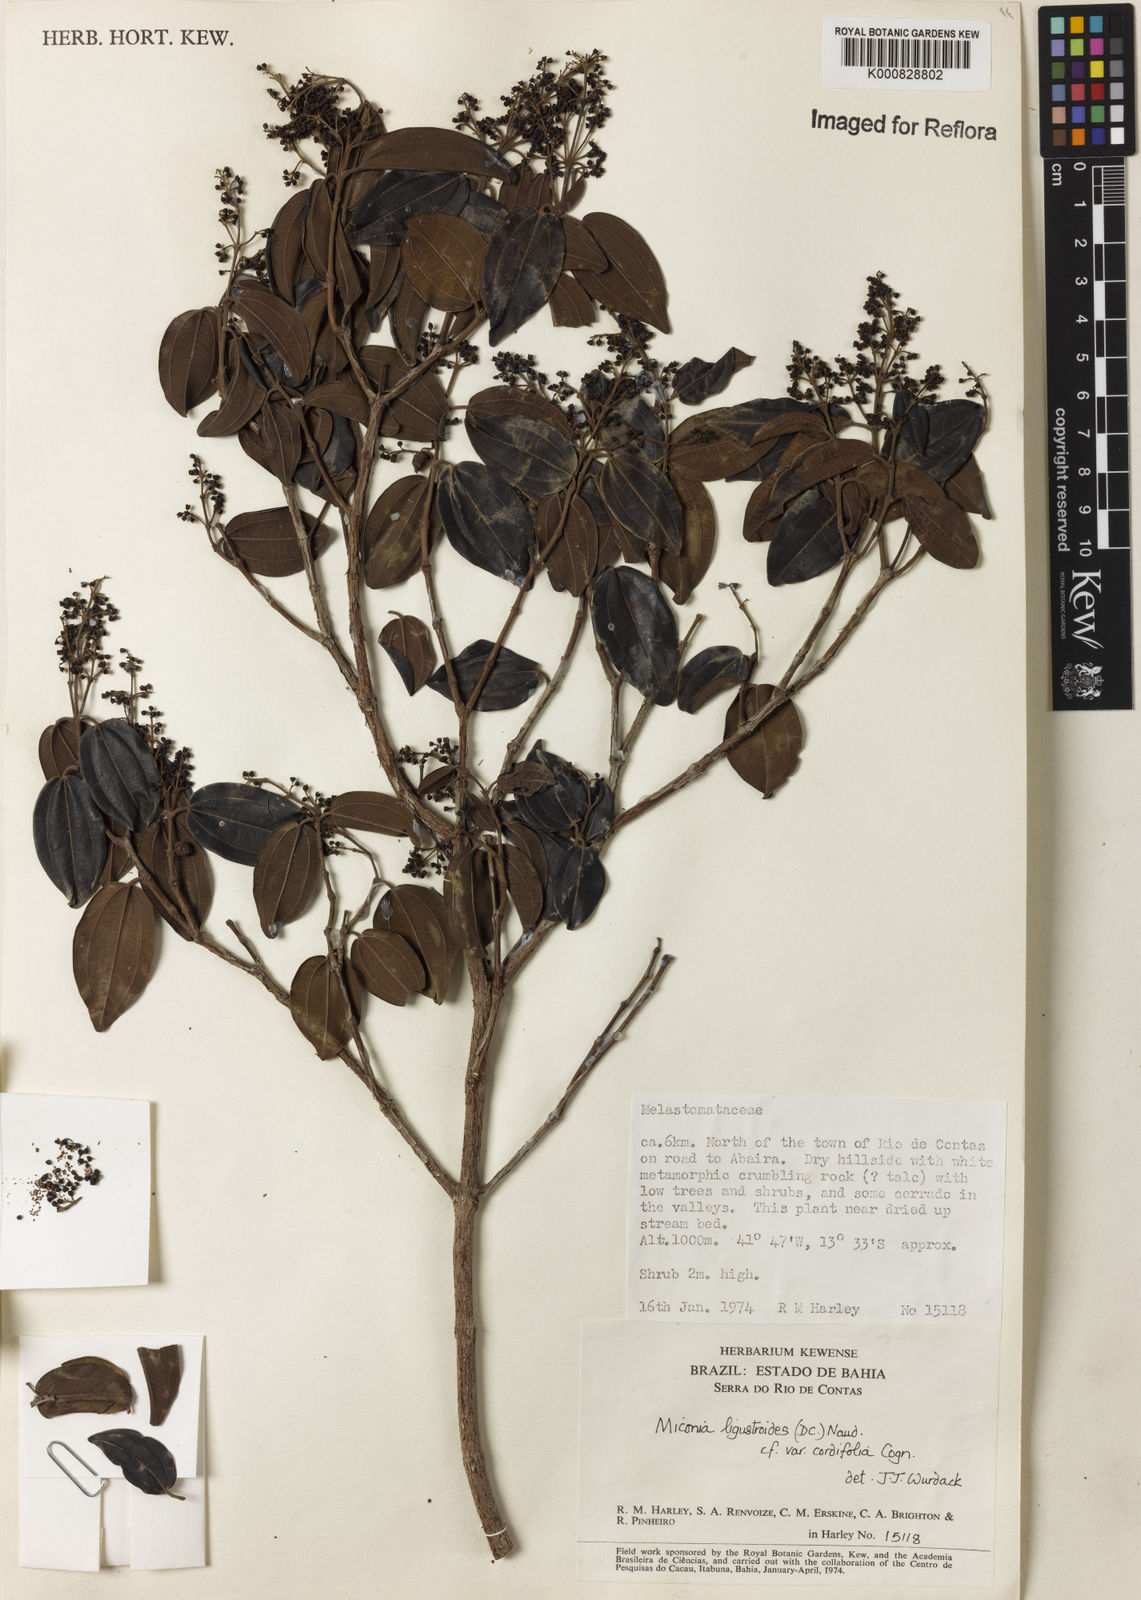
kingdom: Plantae
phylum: Tracheophyta
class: Magnoliopsida
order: Myrtales
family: Melastomataceae
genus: Miconia
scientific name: Miconia ligustroides
